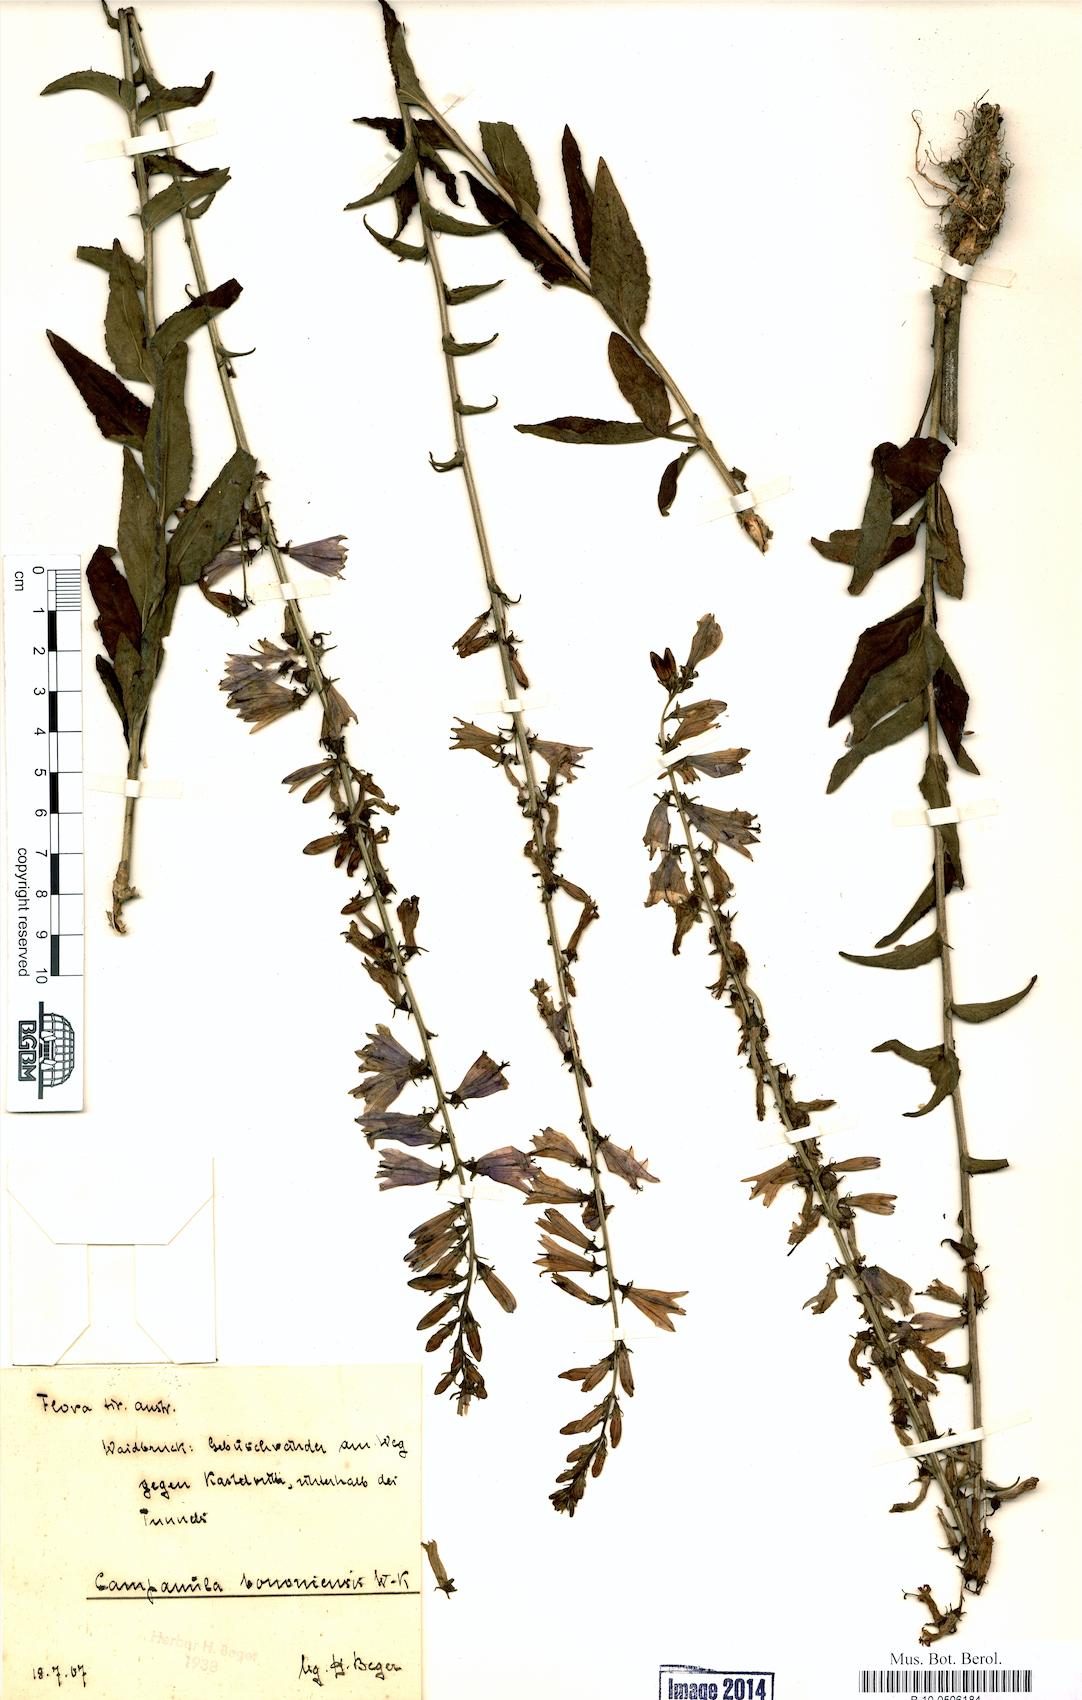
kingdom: Plantae
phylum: Tracheophyta
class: Magnoliopsida
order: Asterales
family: Campanulaceae
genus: Campanula
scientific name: Campanula bononiensis
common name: Pale bellflower
